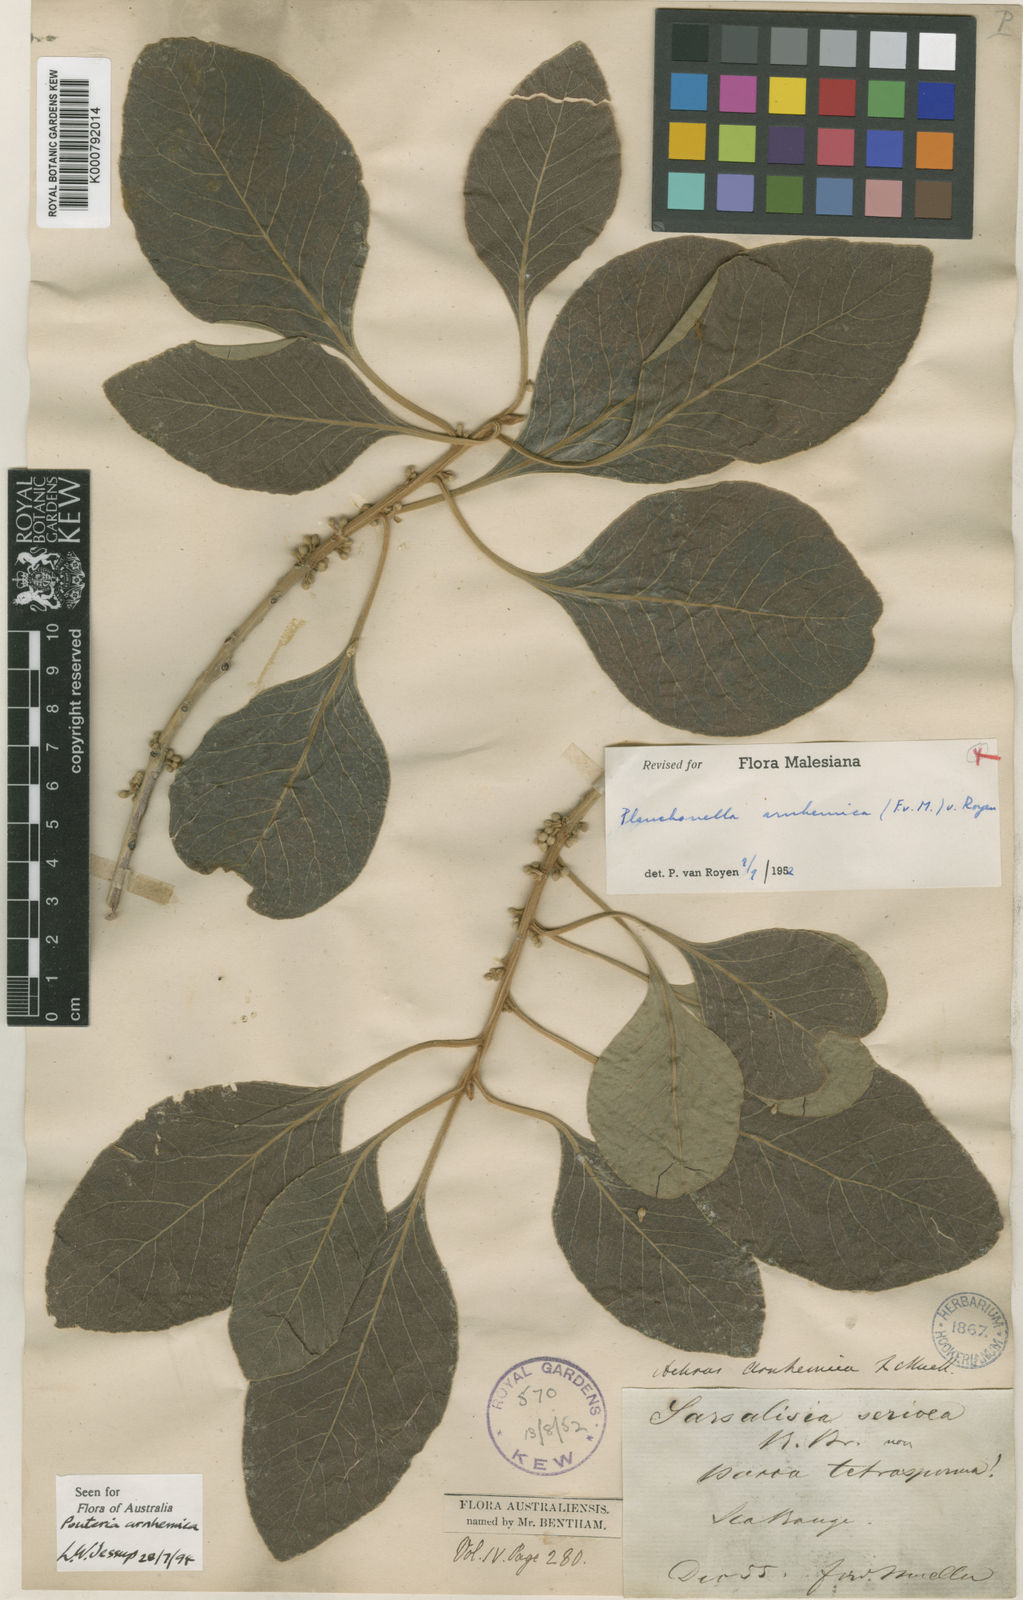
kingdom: Plantae
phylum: Tracheophyta
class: Magnoliopsida
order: Ericales
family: Sapotaceae
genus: Planchonella
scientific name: Planchonella arnhemica
